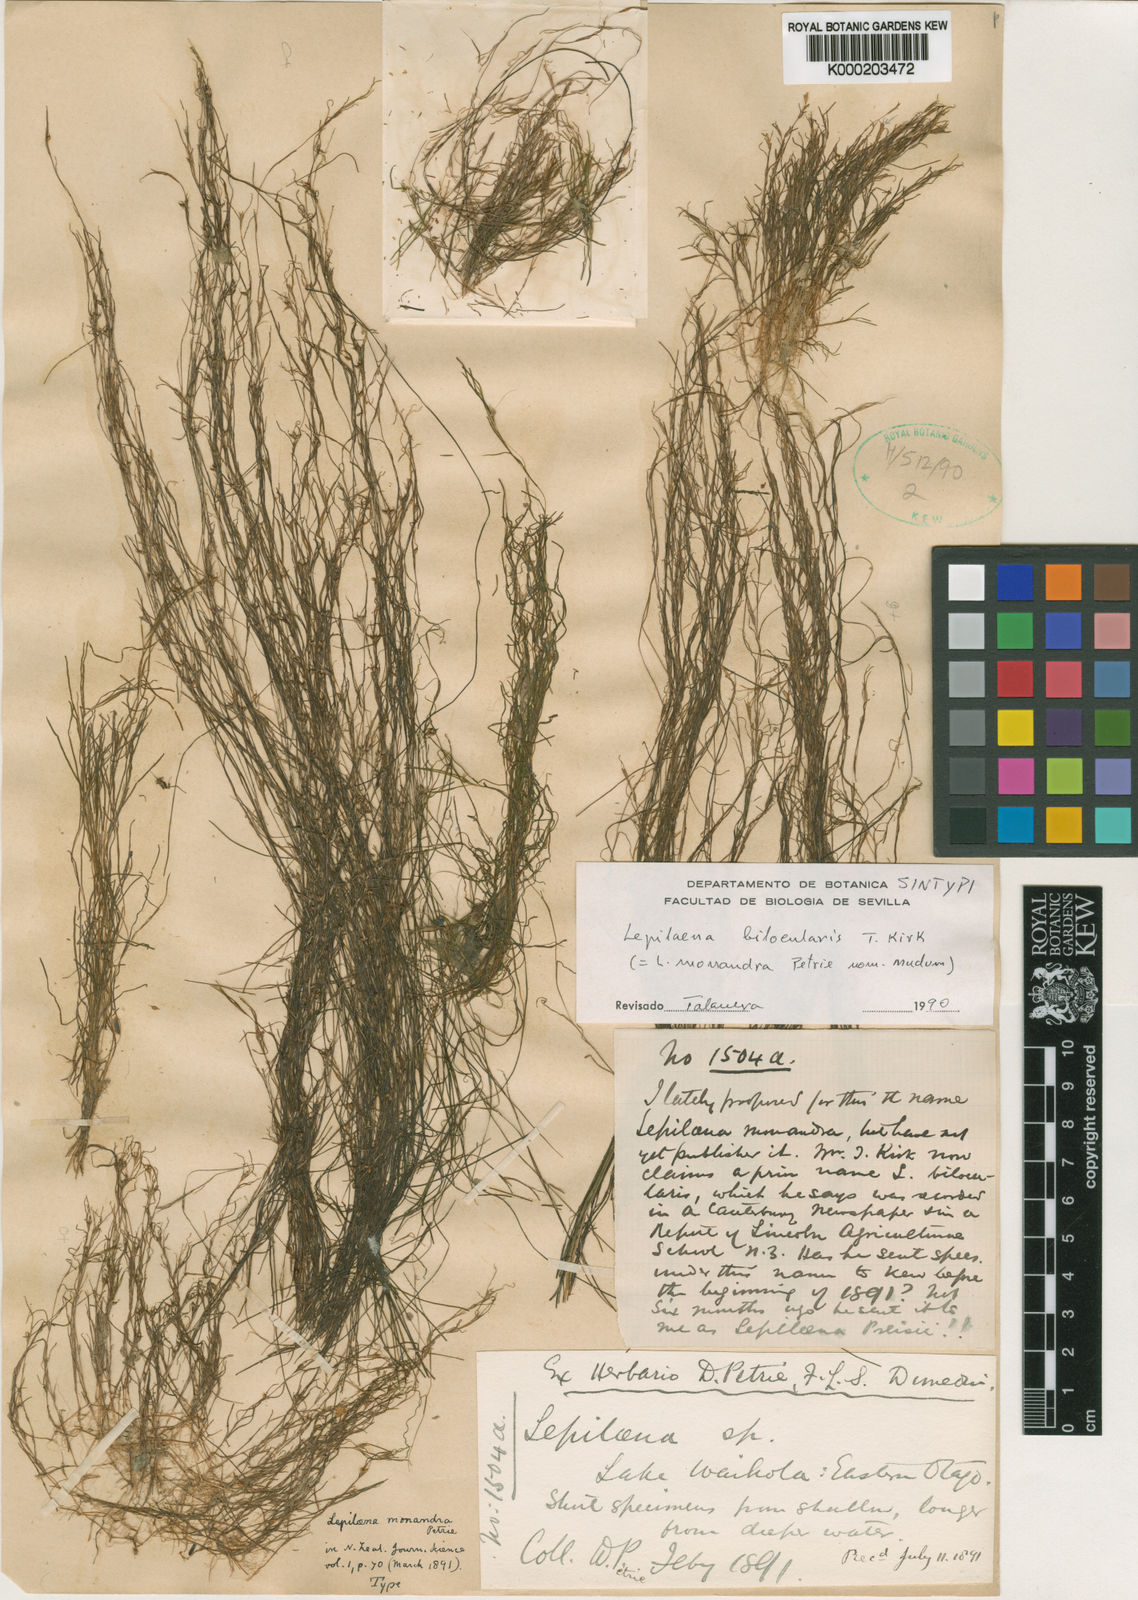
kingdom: Plantae
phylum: Tracheophyta
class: Liliopsida
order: Alismatales
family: Potamogetonaceae
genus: Althenia
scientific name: Althenia bilocularis
